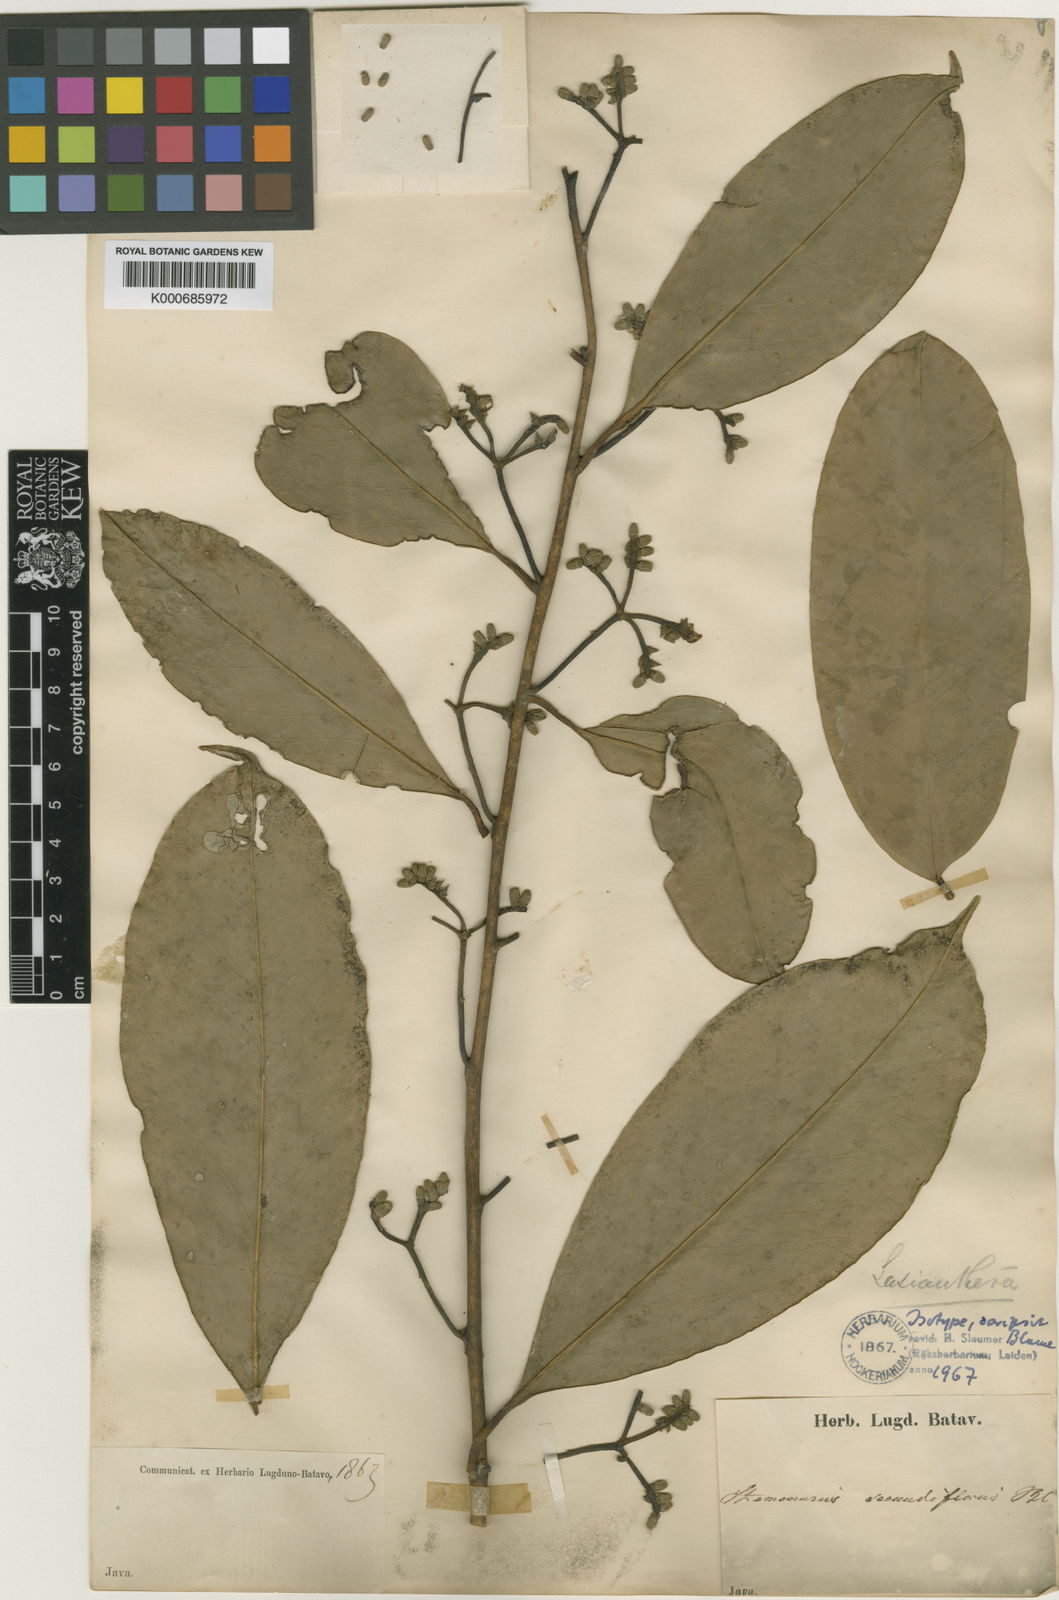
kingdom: Plantae
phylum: Tracheophyta
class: Magnoliopsida
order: Cardiopteridales
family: Stemonuraceae
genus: Stemonurus
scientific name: Stemonurus secundiflorus
